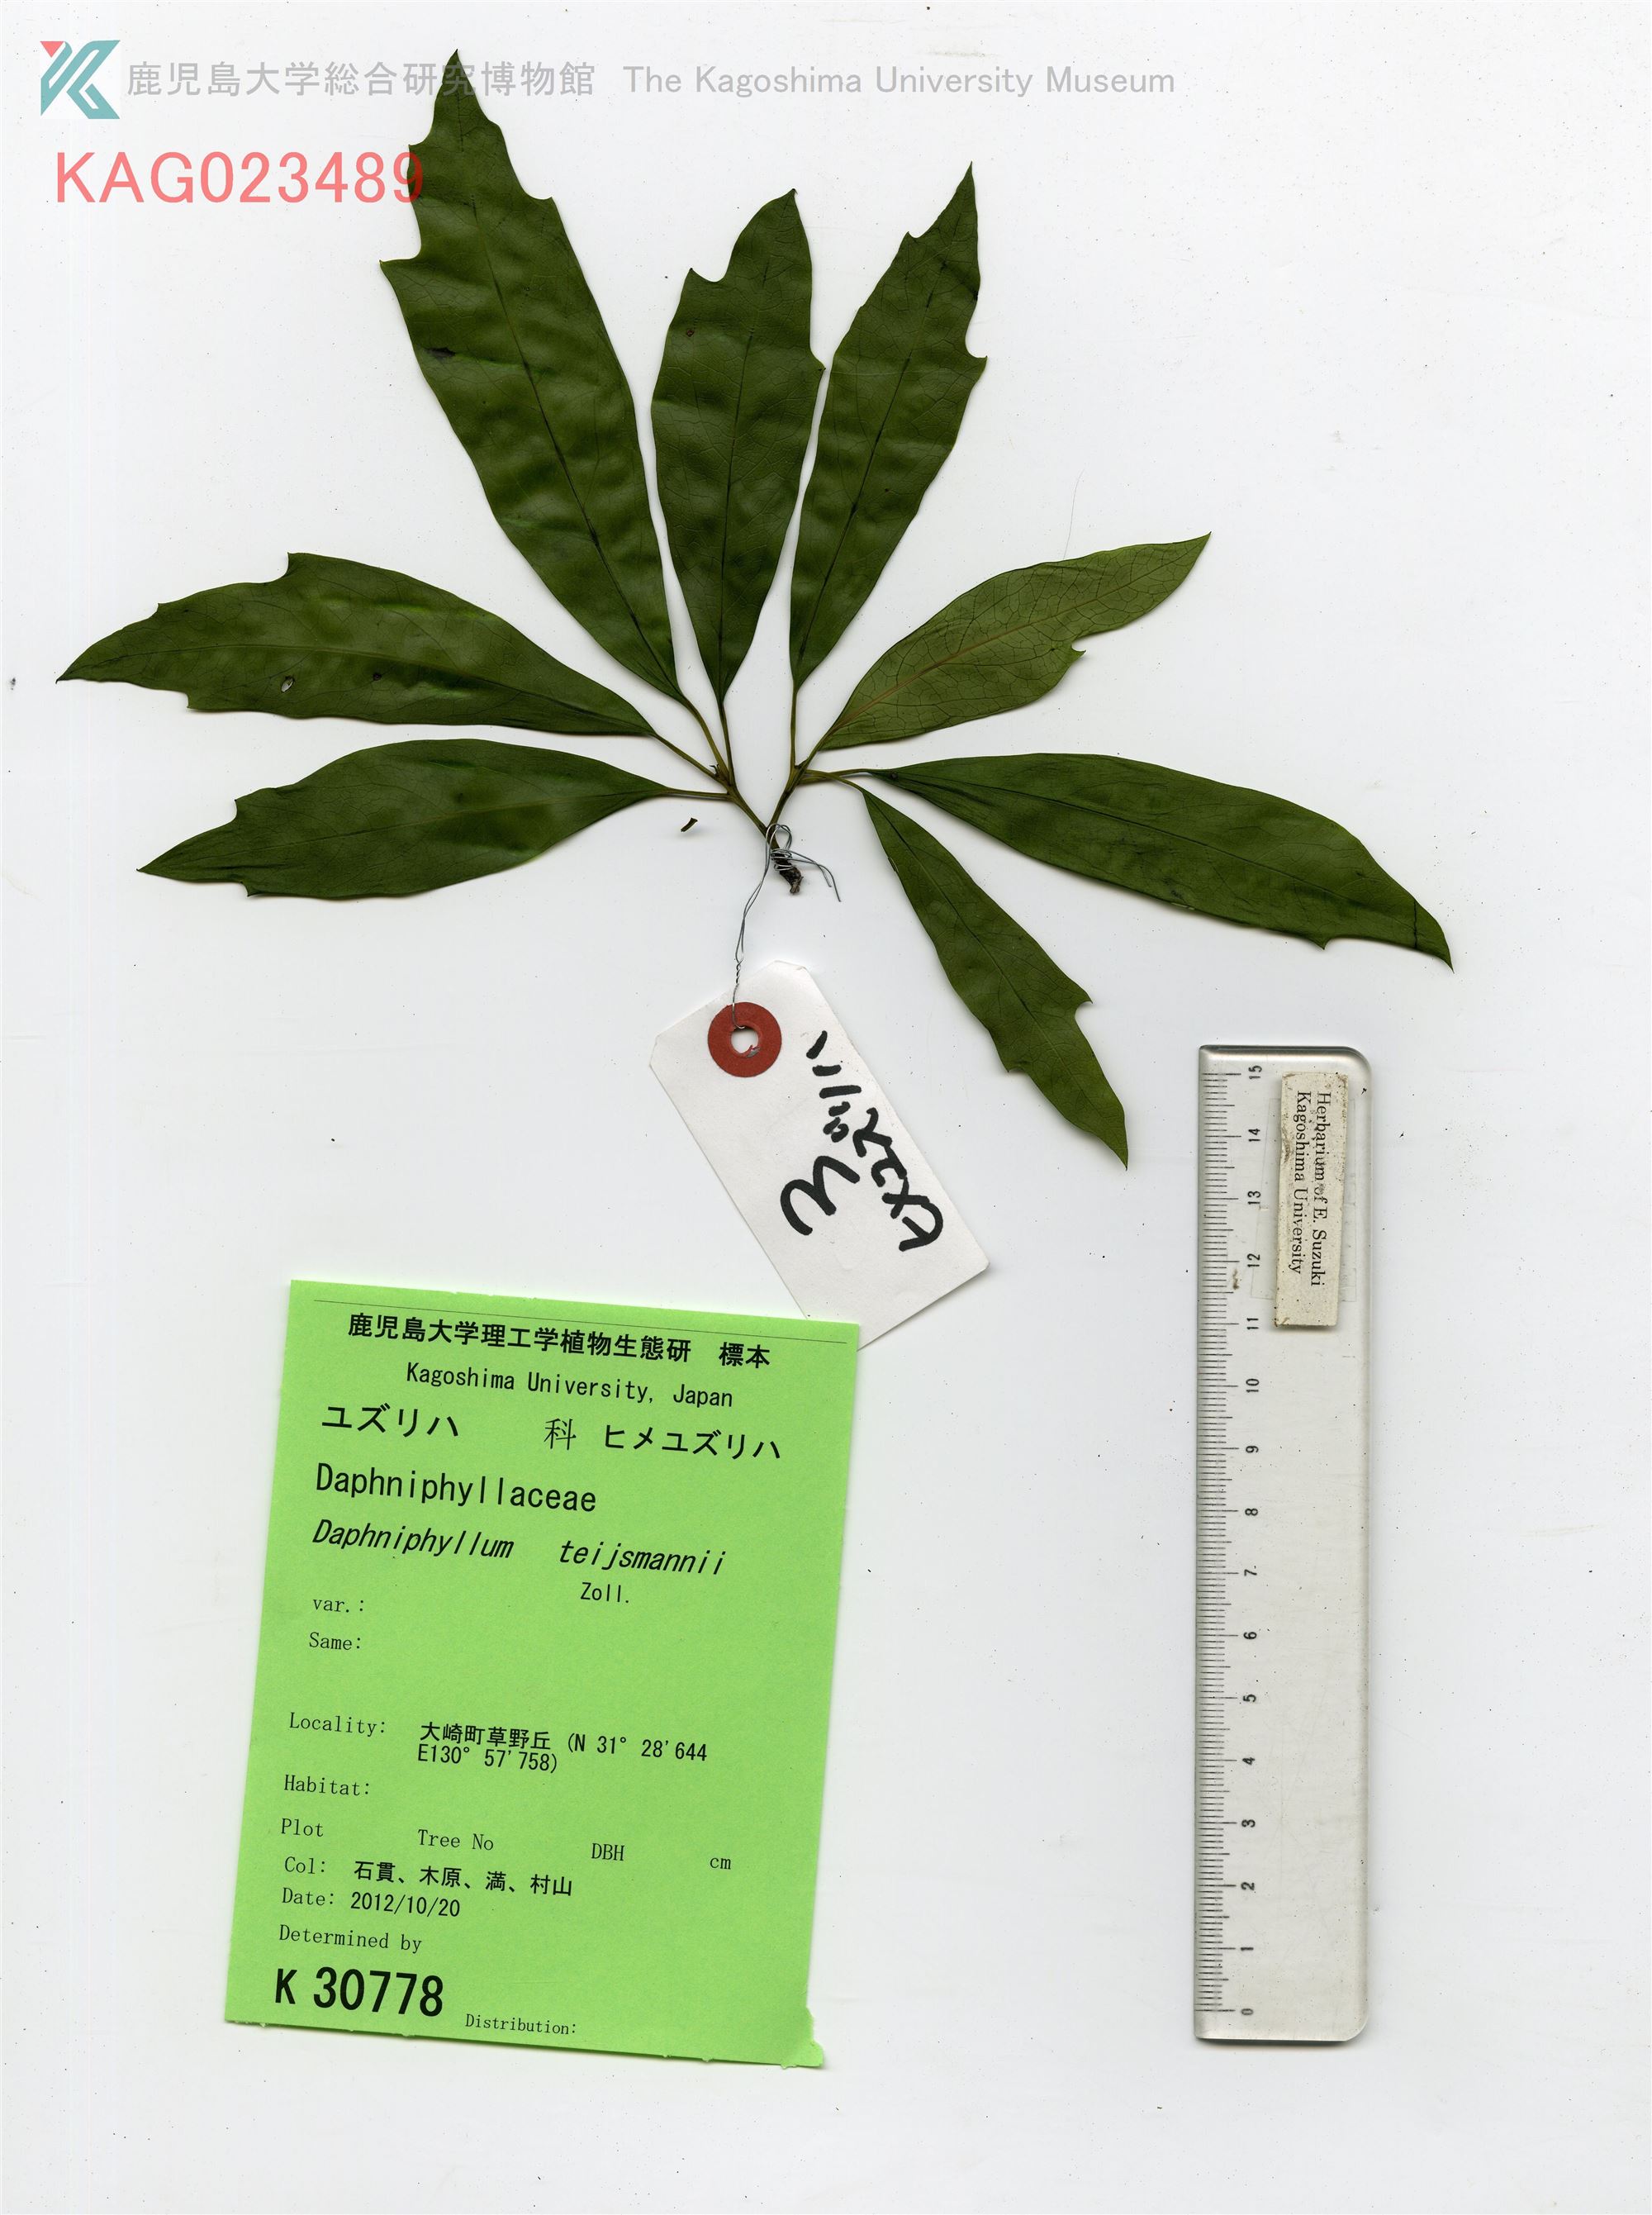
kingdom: Plantae
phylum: Tracheophyta
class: Magnoliopsida
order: Saxifragales
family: Daphniphyllaceae
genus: Daphniphyllum
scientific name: Daphniphyllum teijsmannii
